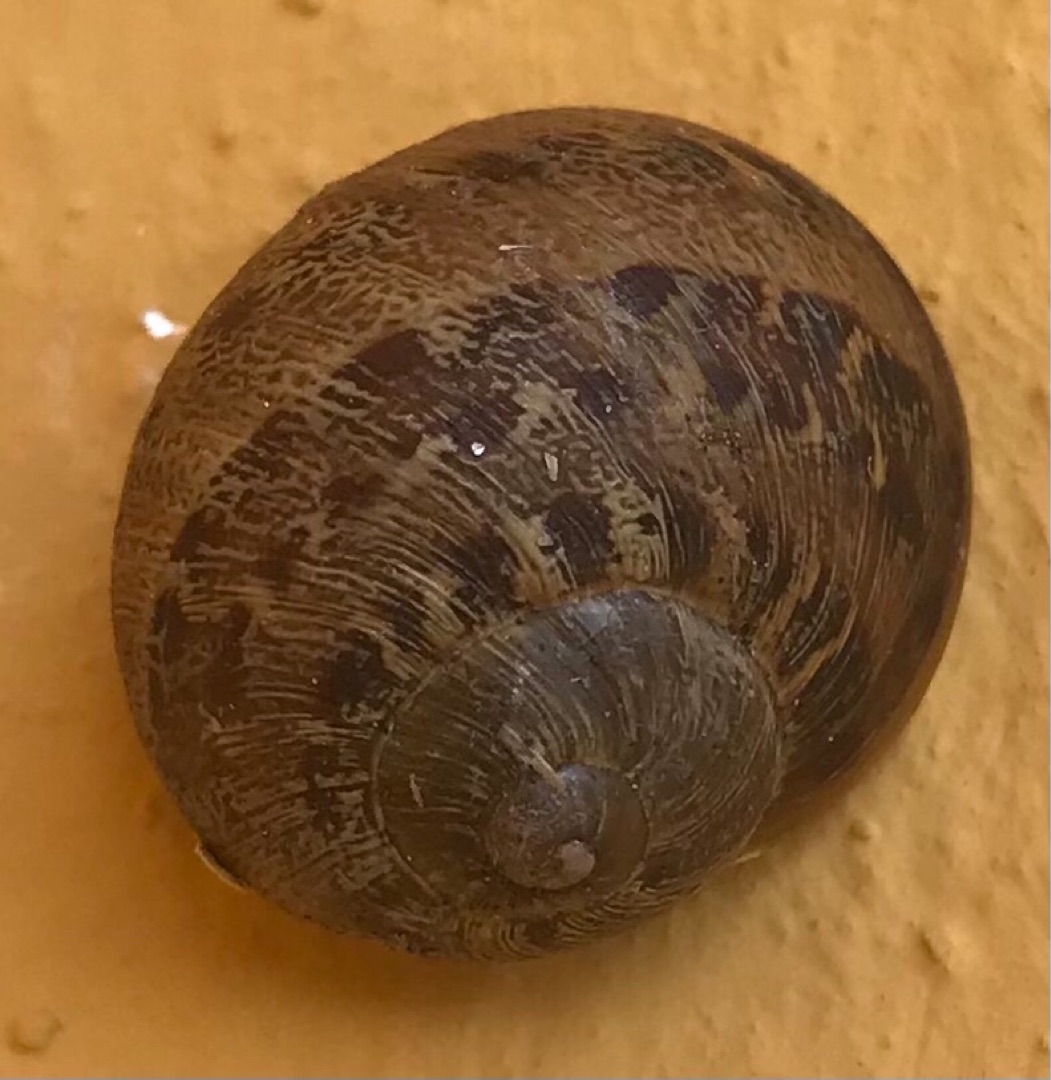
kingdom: Animalia
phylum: Mollusca
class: Gastropoda
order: Stylommatophora
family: Helicidae
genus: Cornu
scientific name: Cornu aspersum
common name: Plettet voldsnegl
